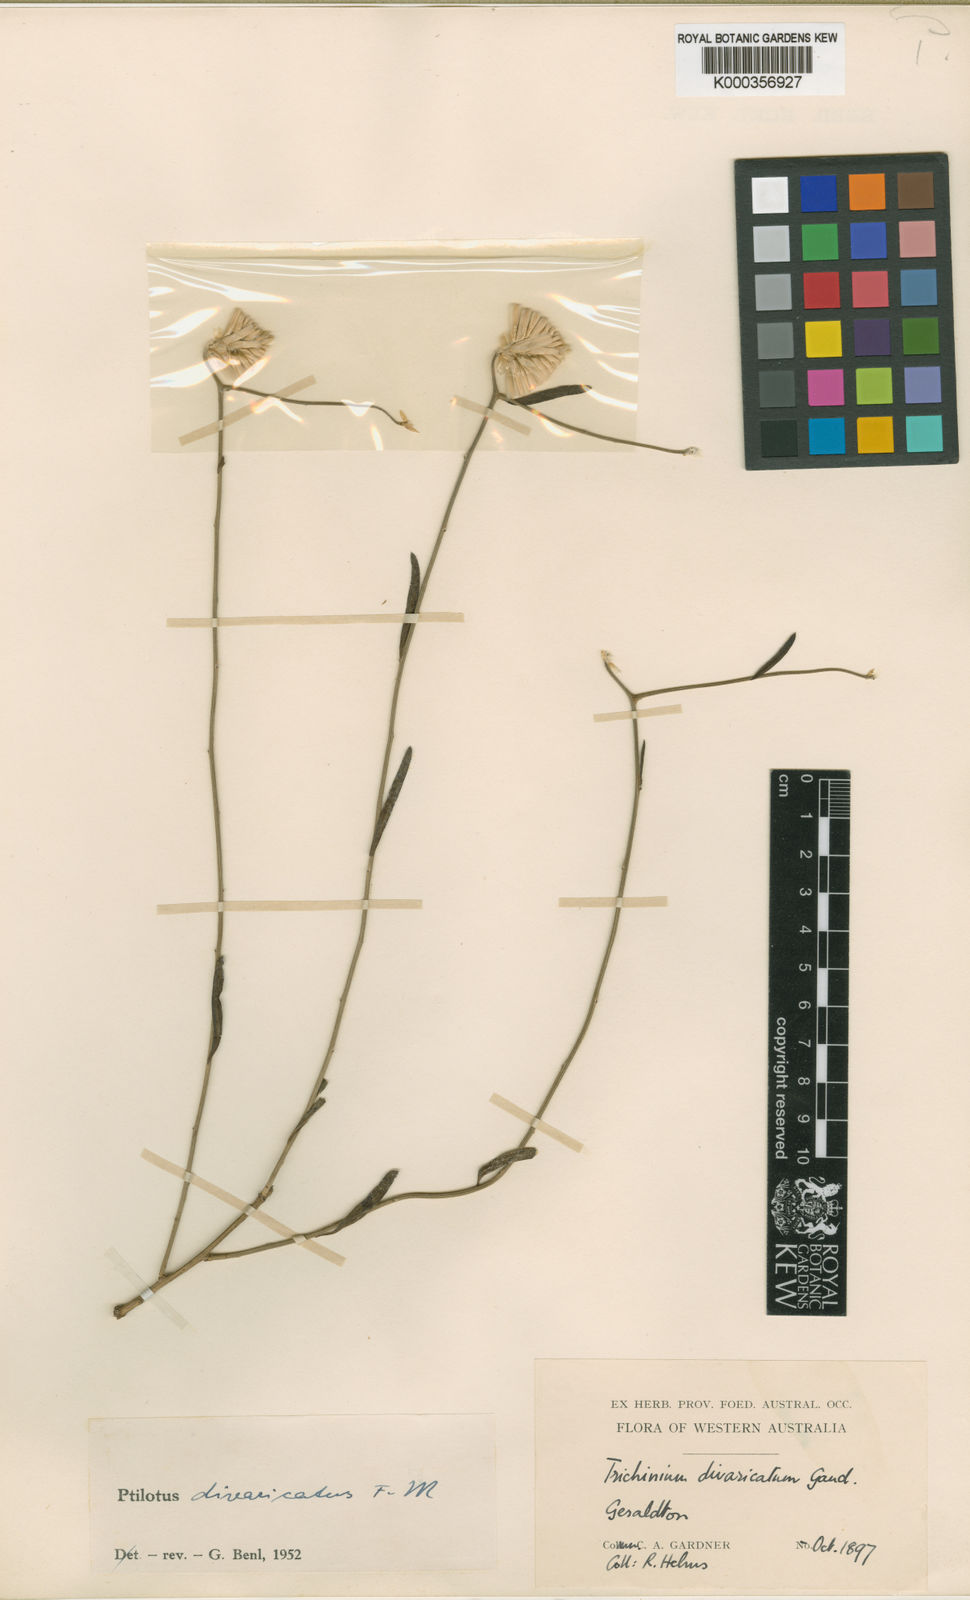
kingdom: Plantae
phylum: Tracheophyta
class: Magnoliopsida
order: Caryophyllales
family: Amaranthaceae
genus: Ptilotus
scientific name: Ptilotus divaricatus
